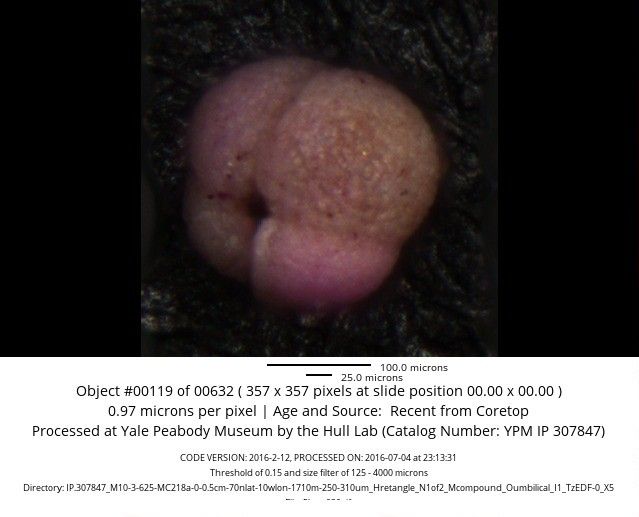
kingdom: Chromista
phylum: Foraminifera
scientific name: Foraminifera
